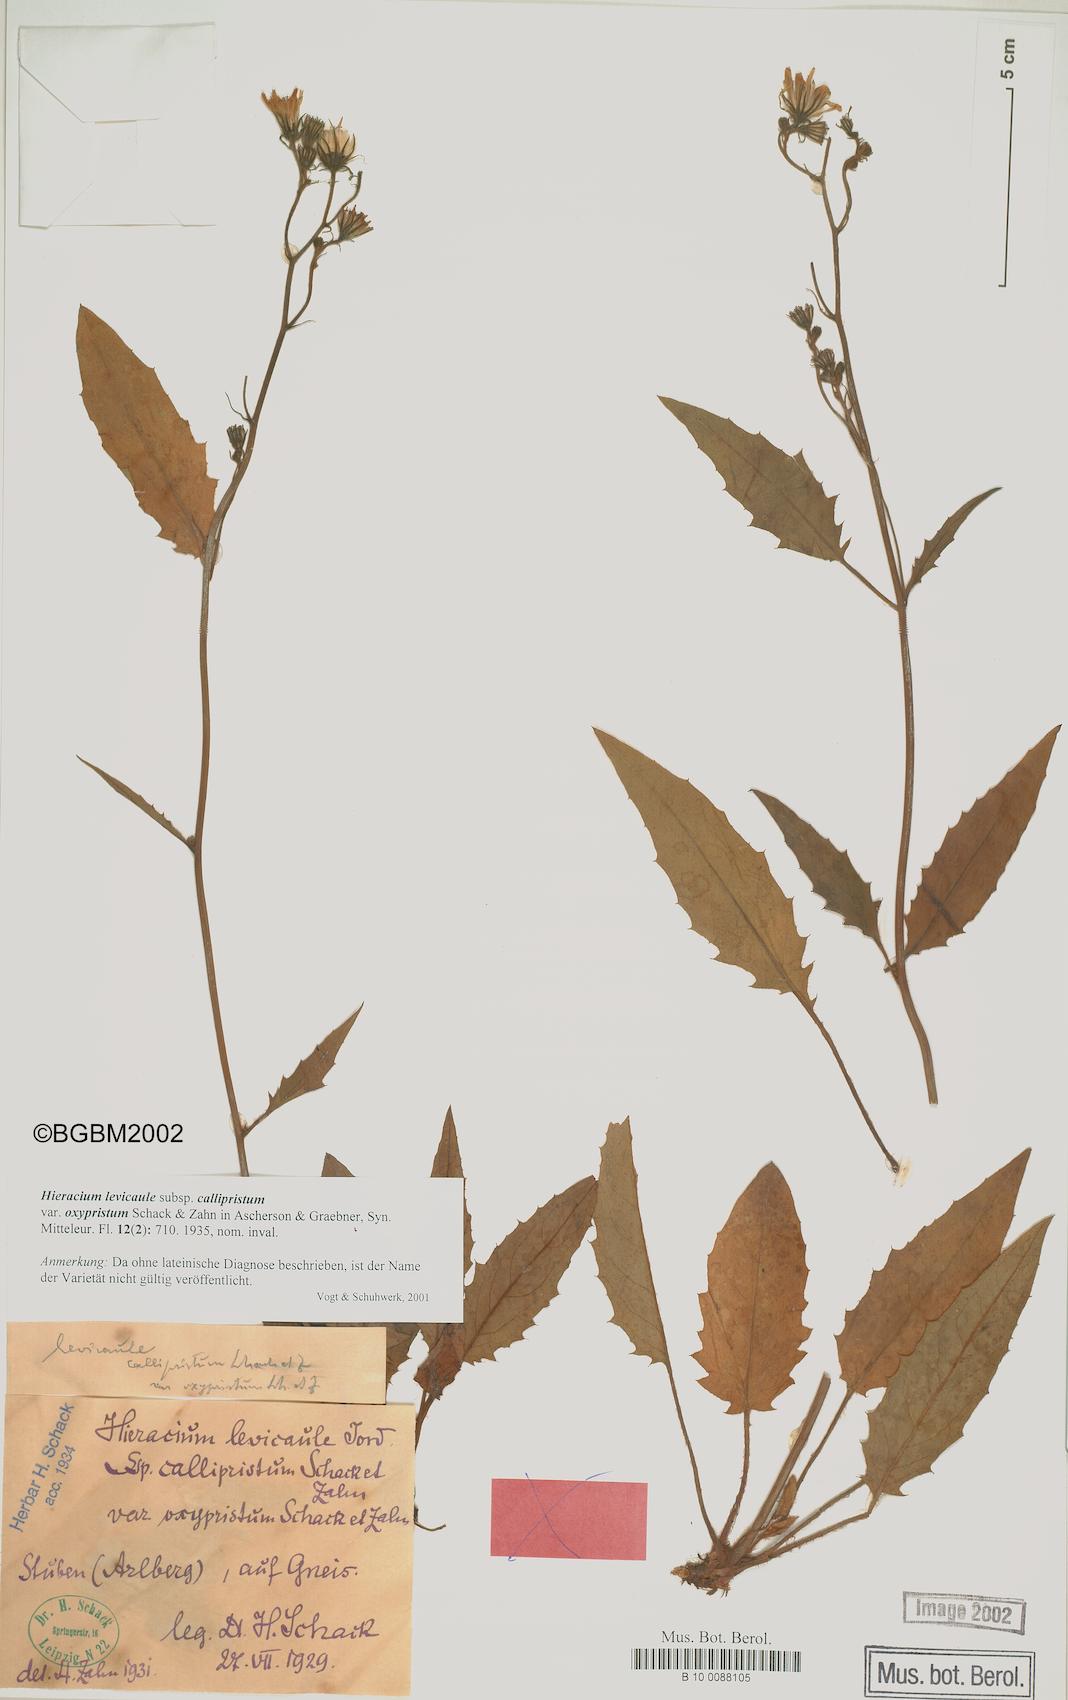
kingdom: Plantae
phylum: Tracheophyta
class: Magnoliopsida
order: Asterales
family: Asteraceae
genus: Hieracium
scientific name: Hieracium
